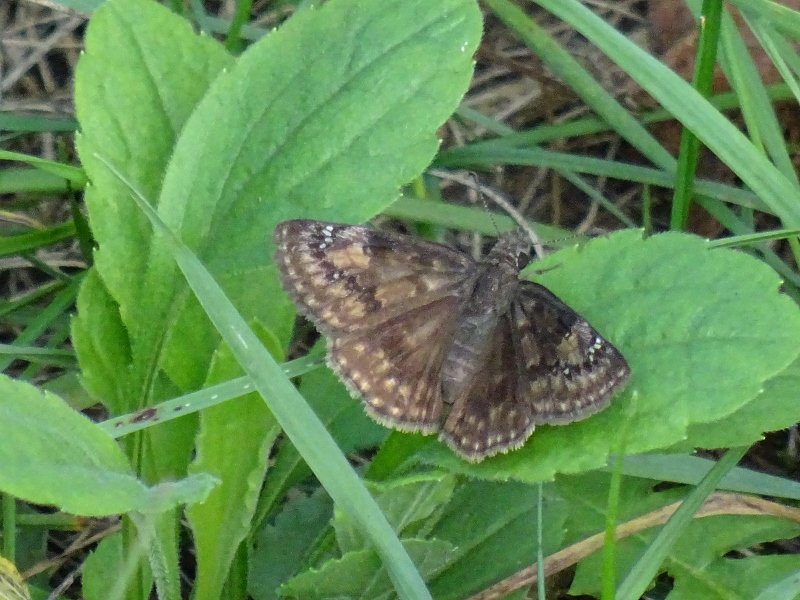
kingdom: Animalia
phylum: Arthropoda
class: Insecta
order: Lepidoptera
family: Hesperiidae
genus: Gesta
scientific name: Gesta
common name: Wild Indigo Duskywing
